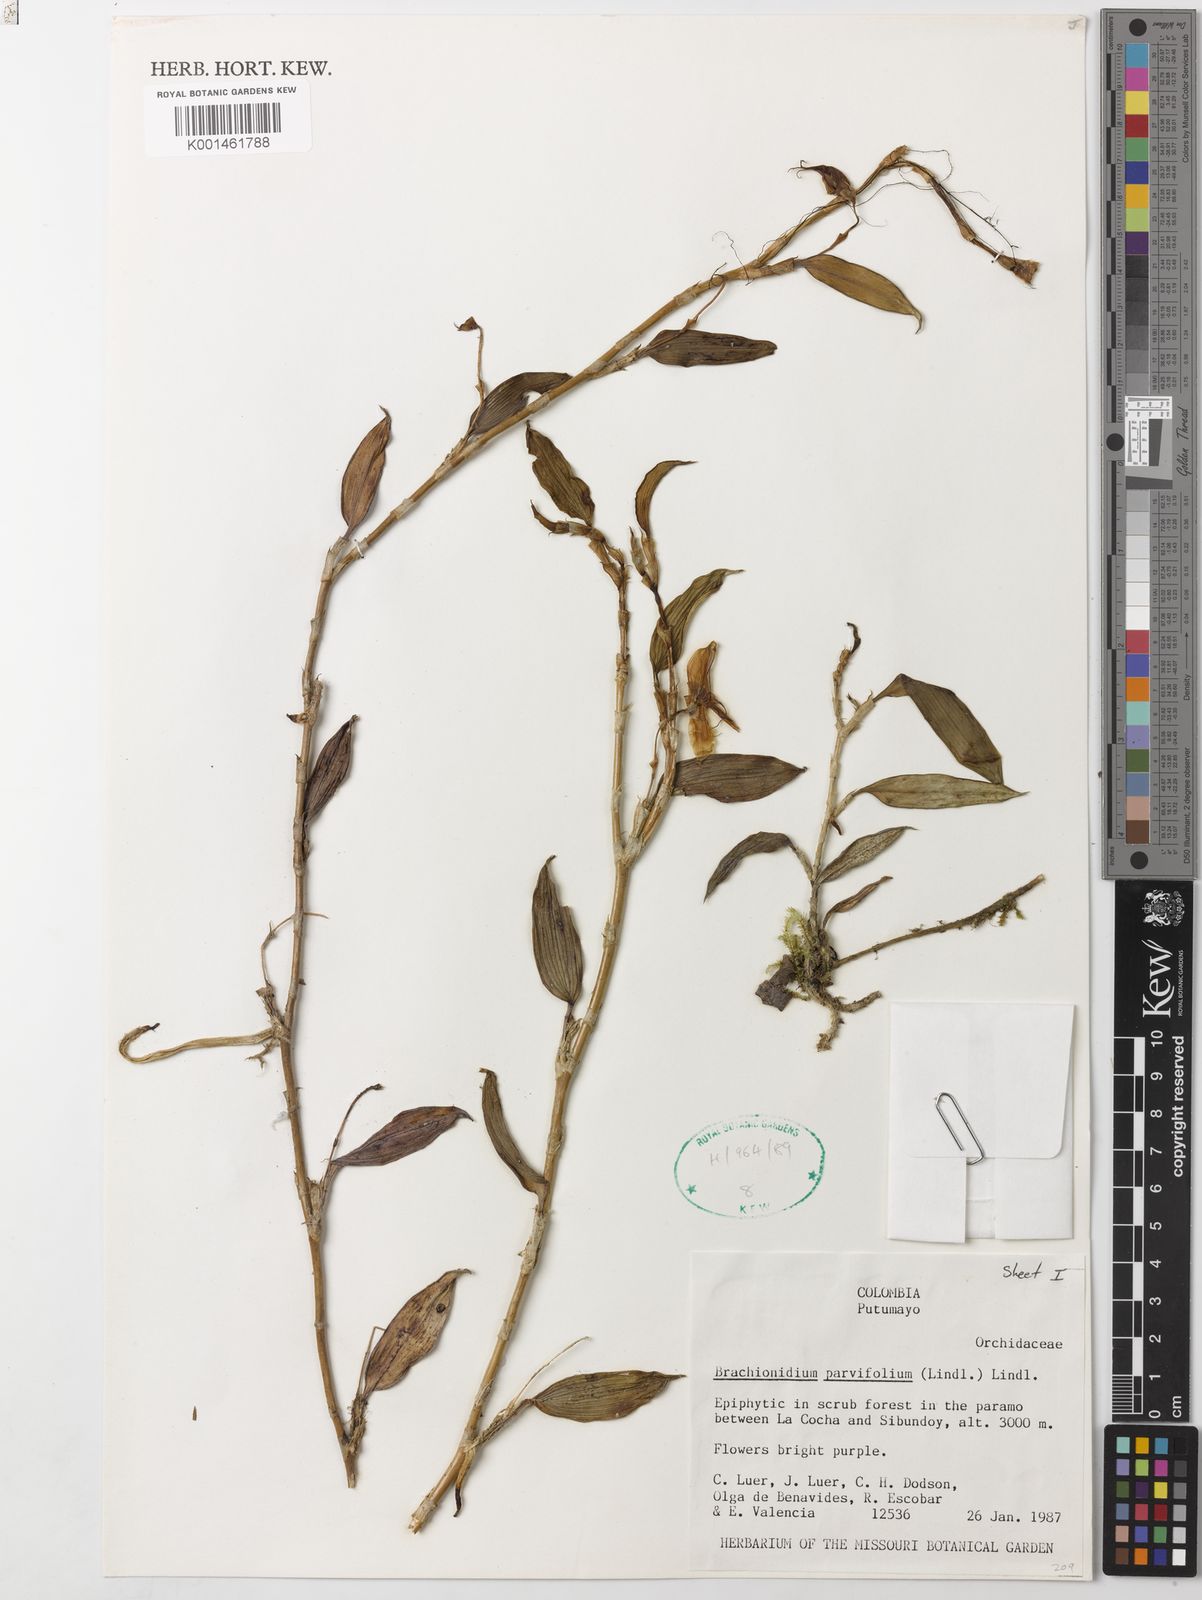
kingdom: Plantae
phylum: Tracheophyta
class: Liliopsida
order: Asparagales
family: Orchidaceae
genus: Brachionidium
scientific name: Brachionidium parvifolium
